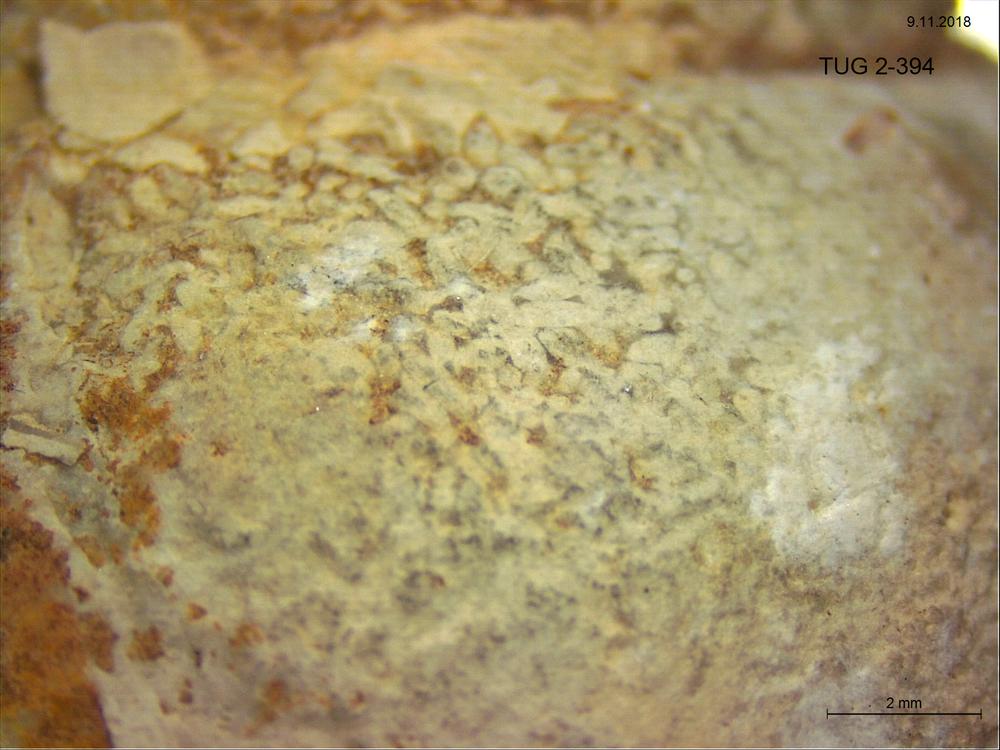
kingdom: Animalia
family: Coprulidae
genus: Coprulus
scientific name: Coprulus
